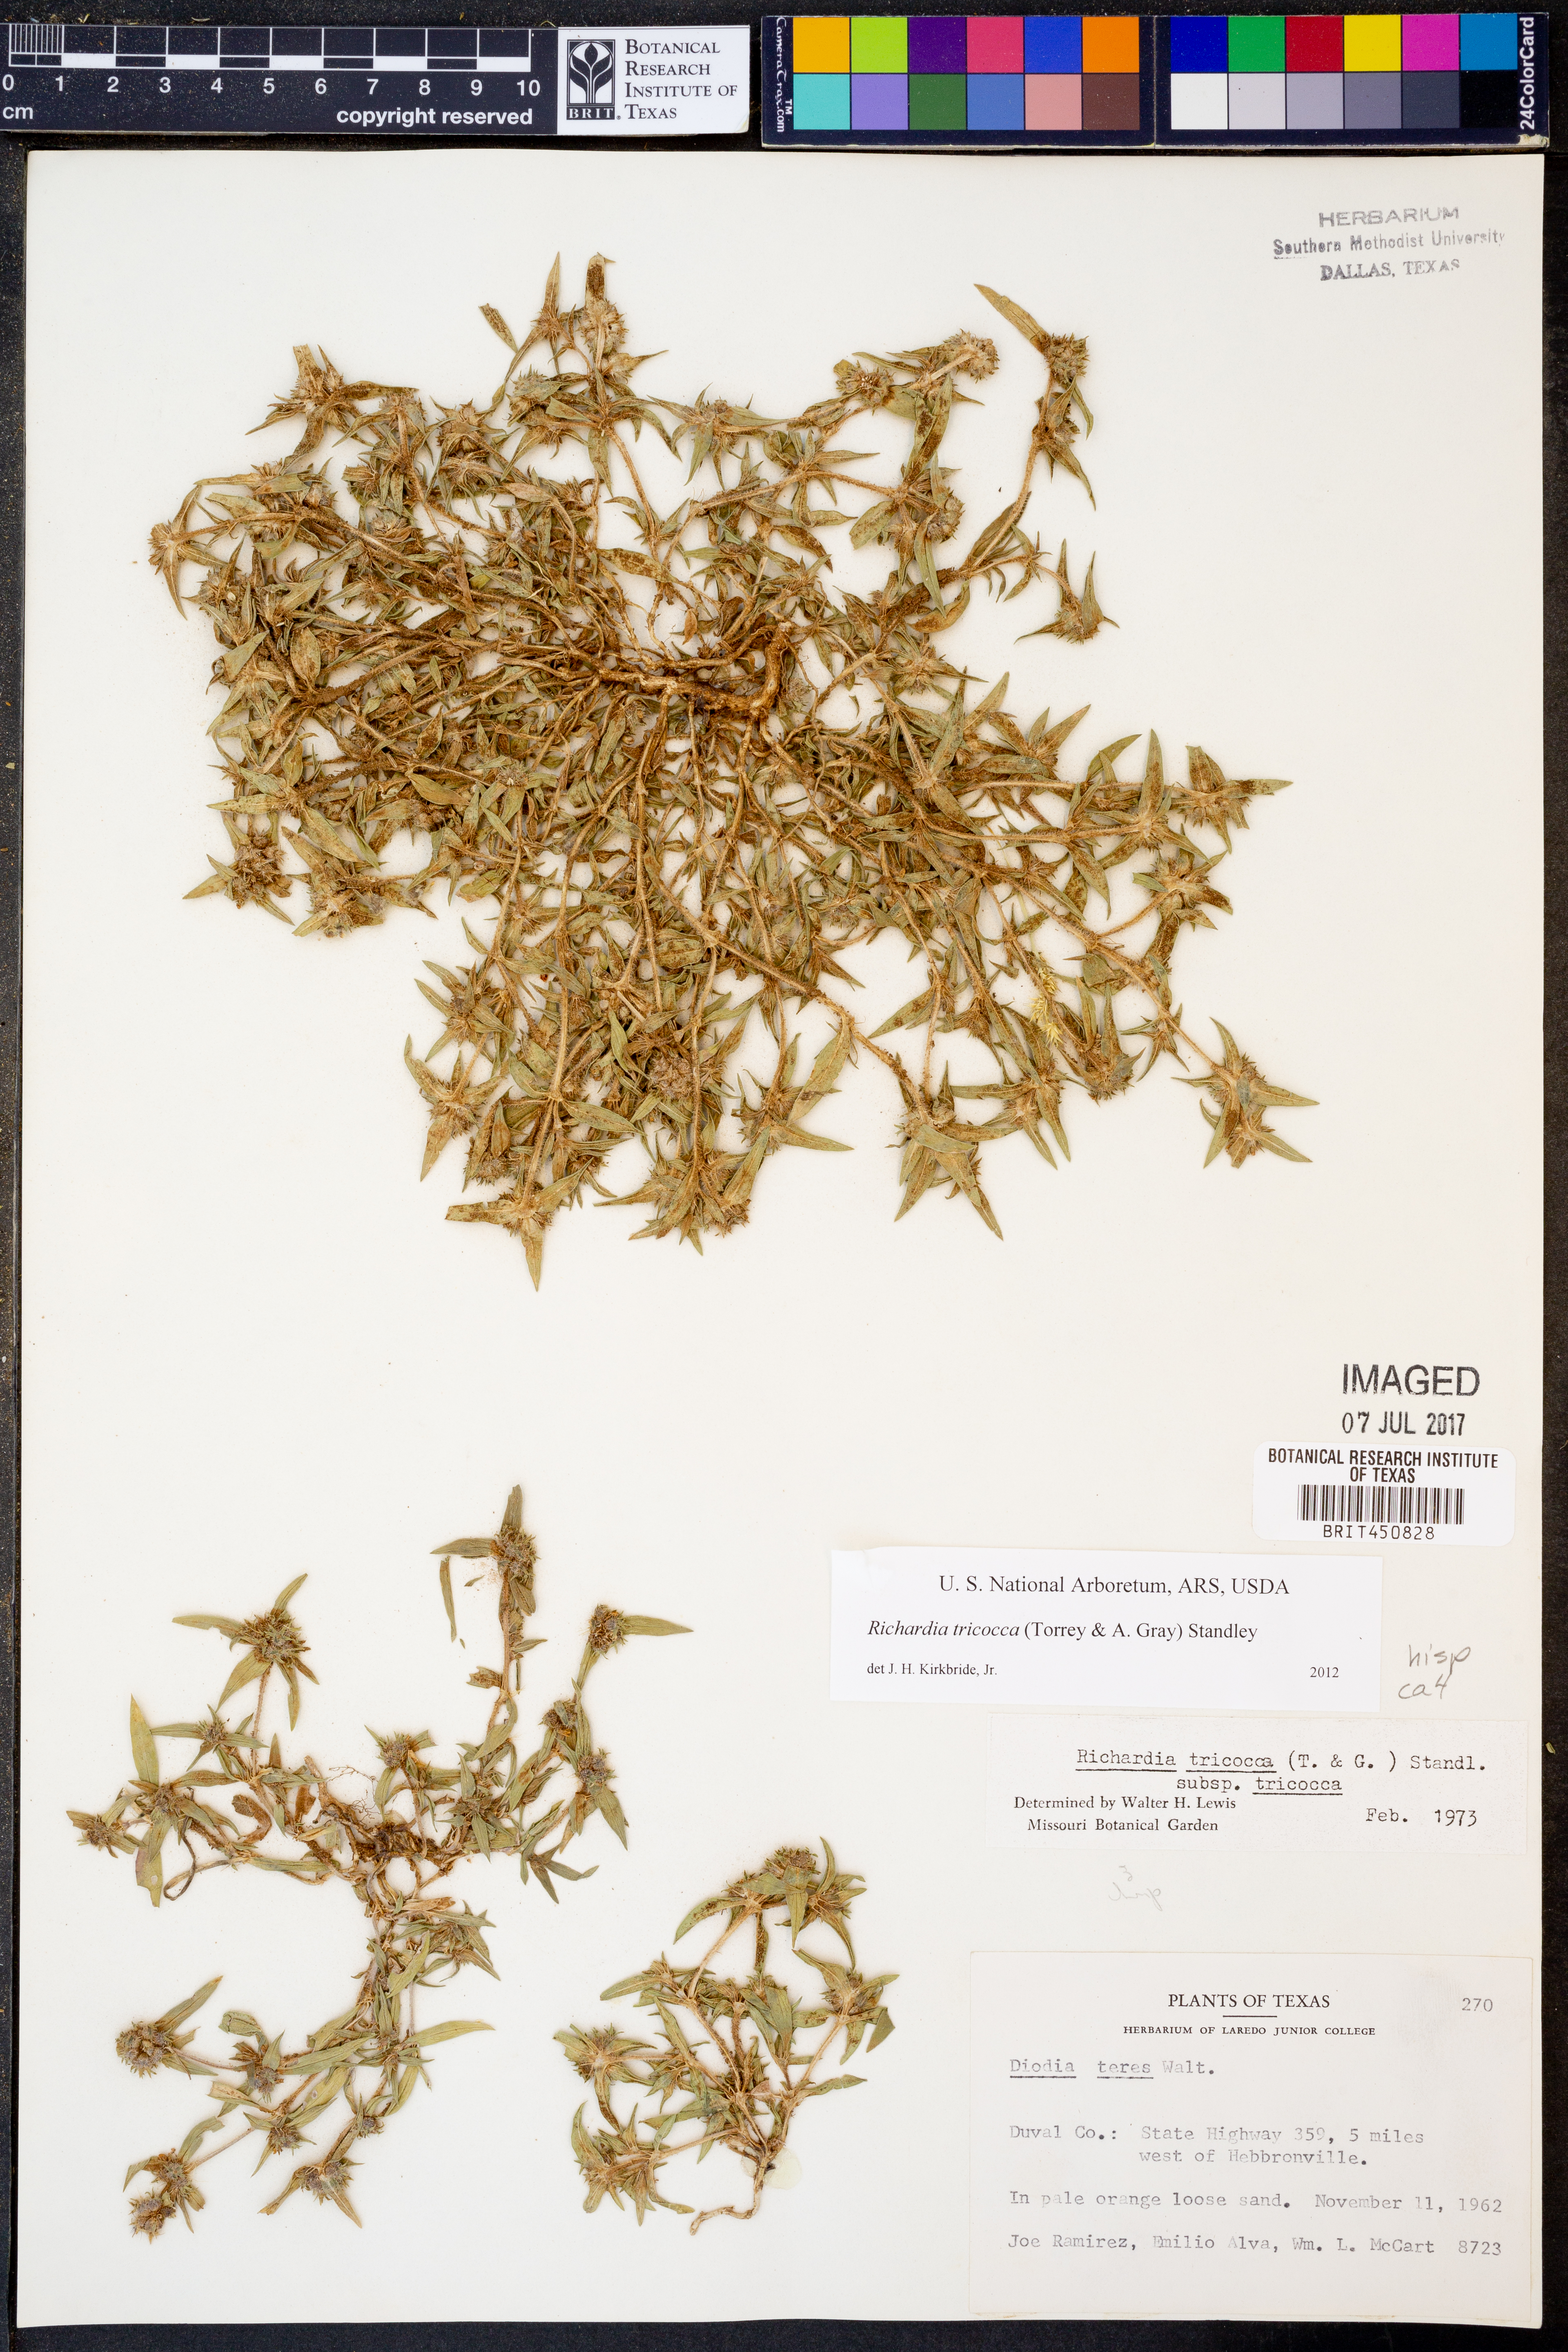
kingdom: Plantae
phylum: Tracheophyta
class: Magnoliopsida
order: Gentianales
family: Rubiaceae
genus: Richardia
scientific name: Richardia tricocca
